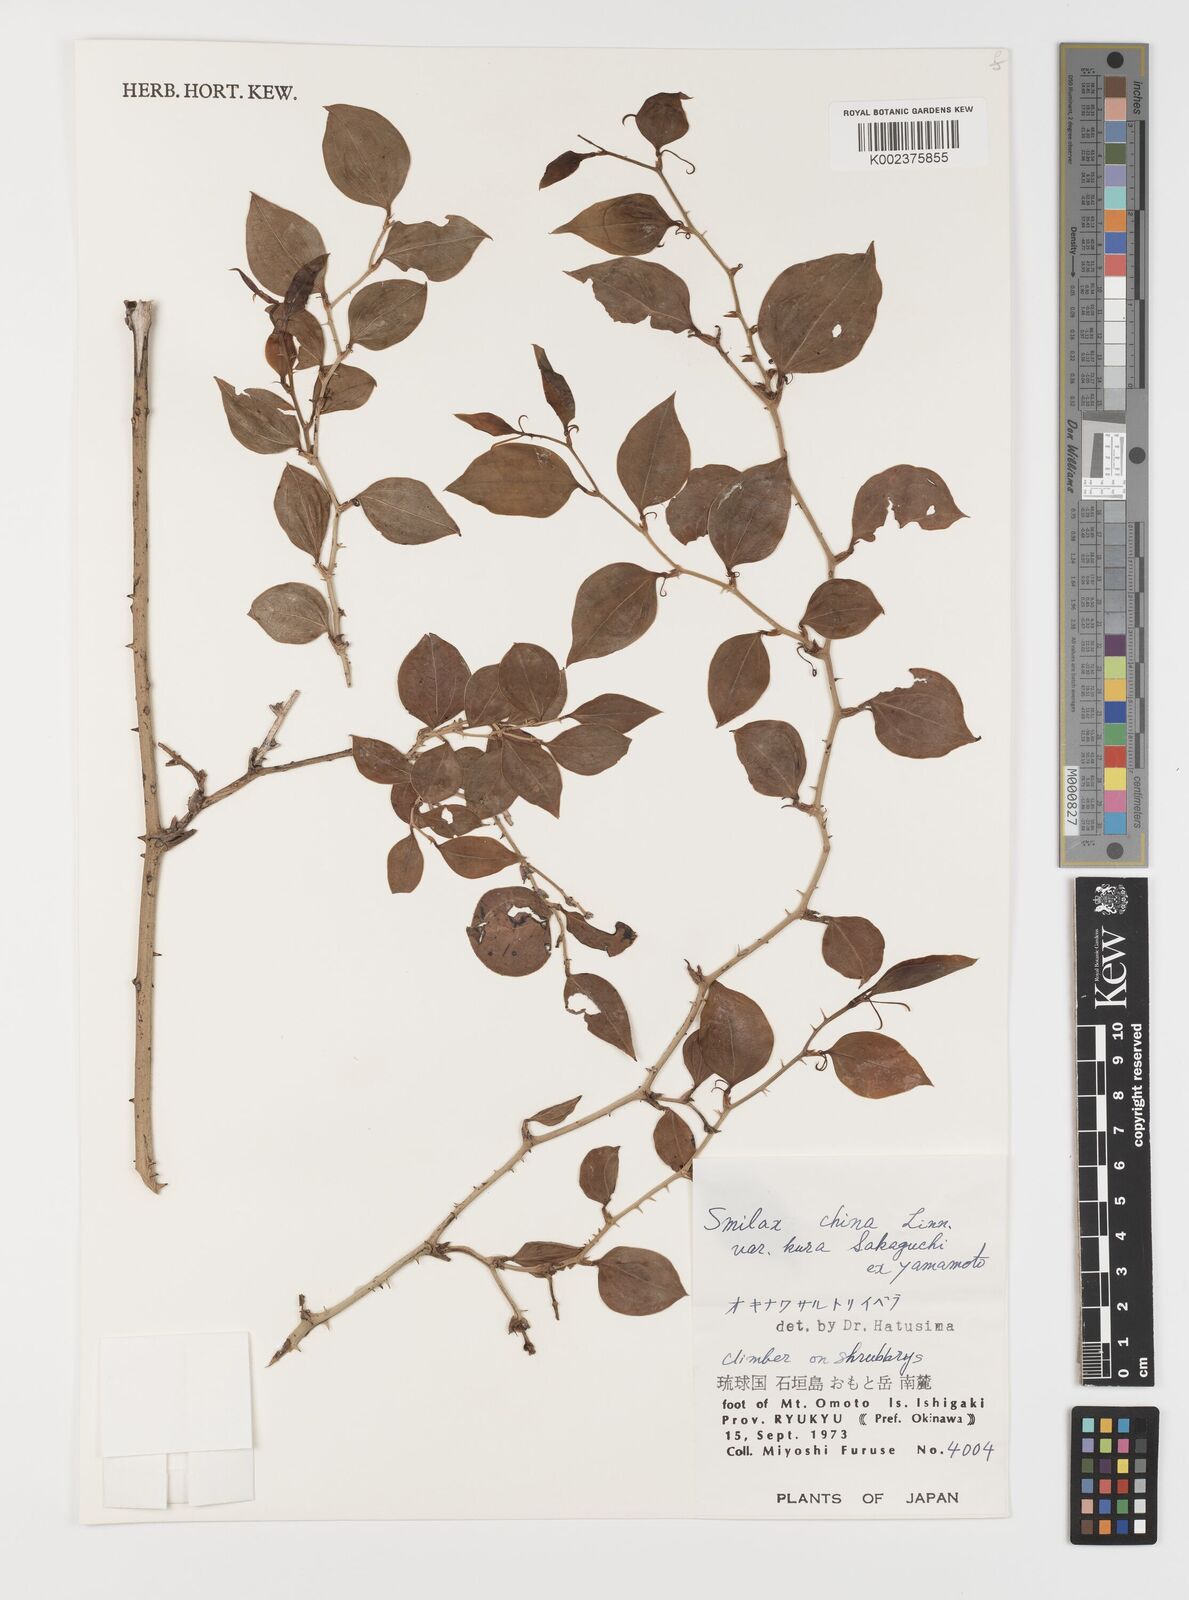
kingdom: Plantae
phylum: Tracheophyta
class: Liliopsida
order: Liliales
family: Smilacaceae
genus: Smilax
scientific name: Smilax china
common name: Chinaroot
